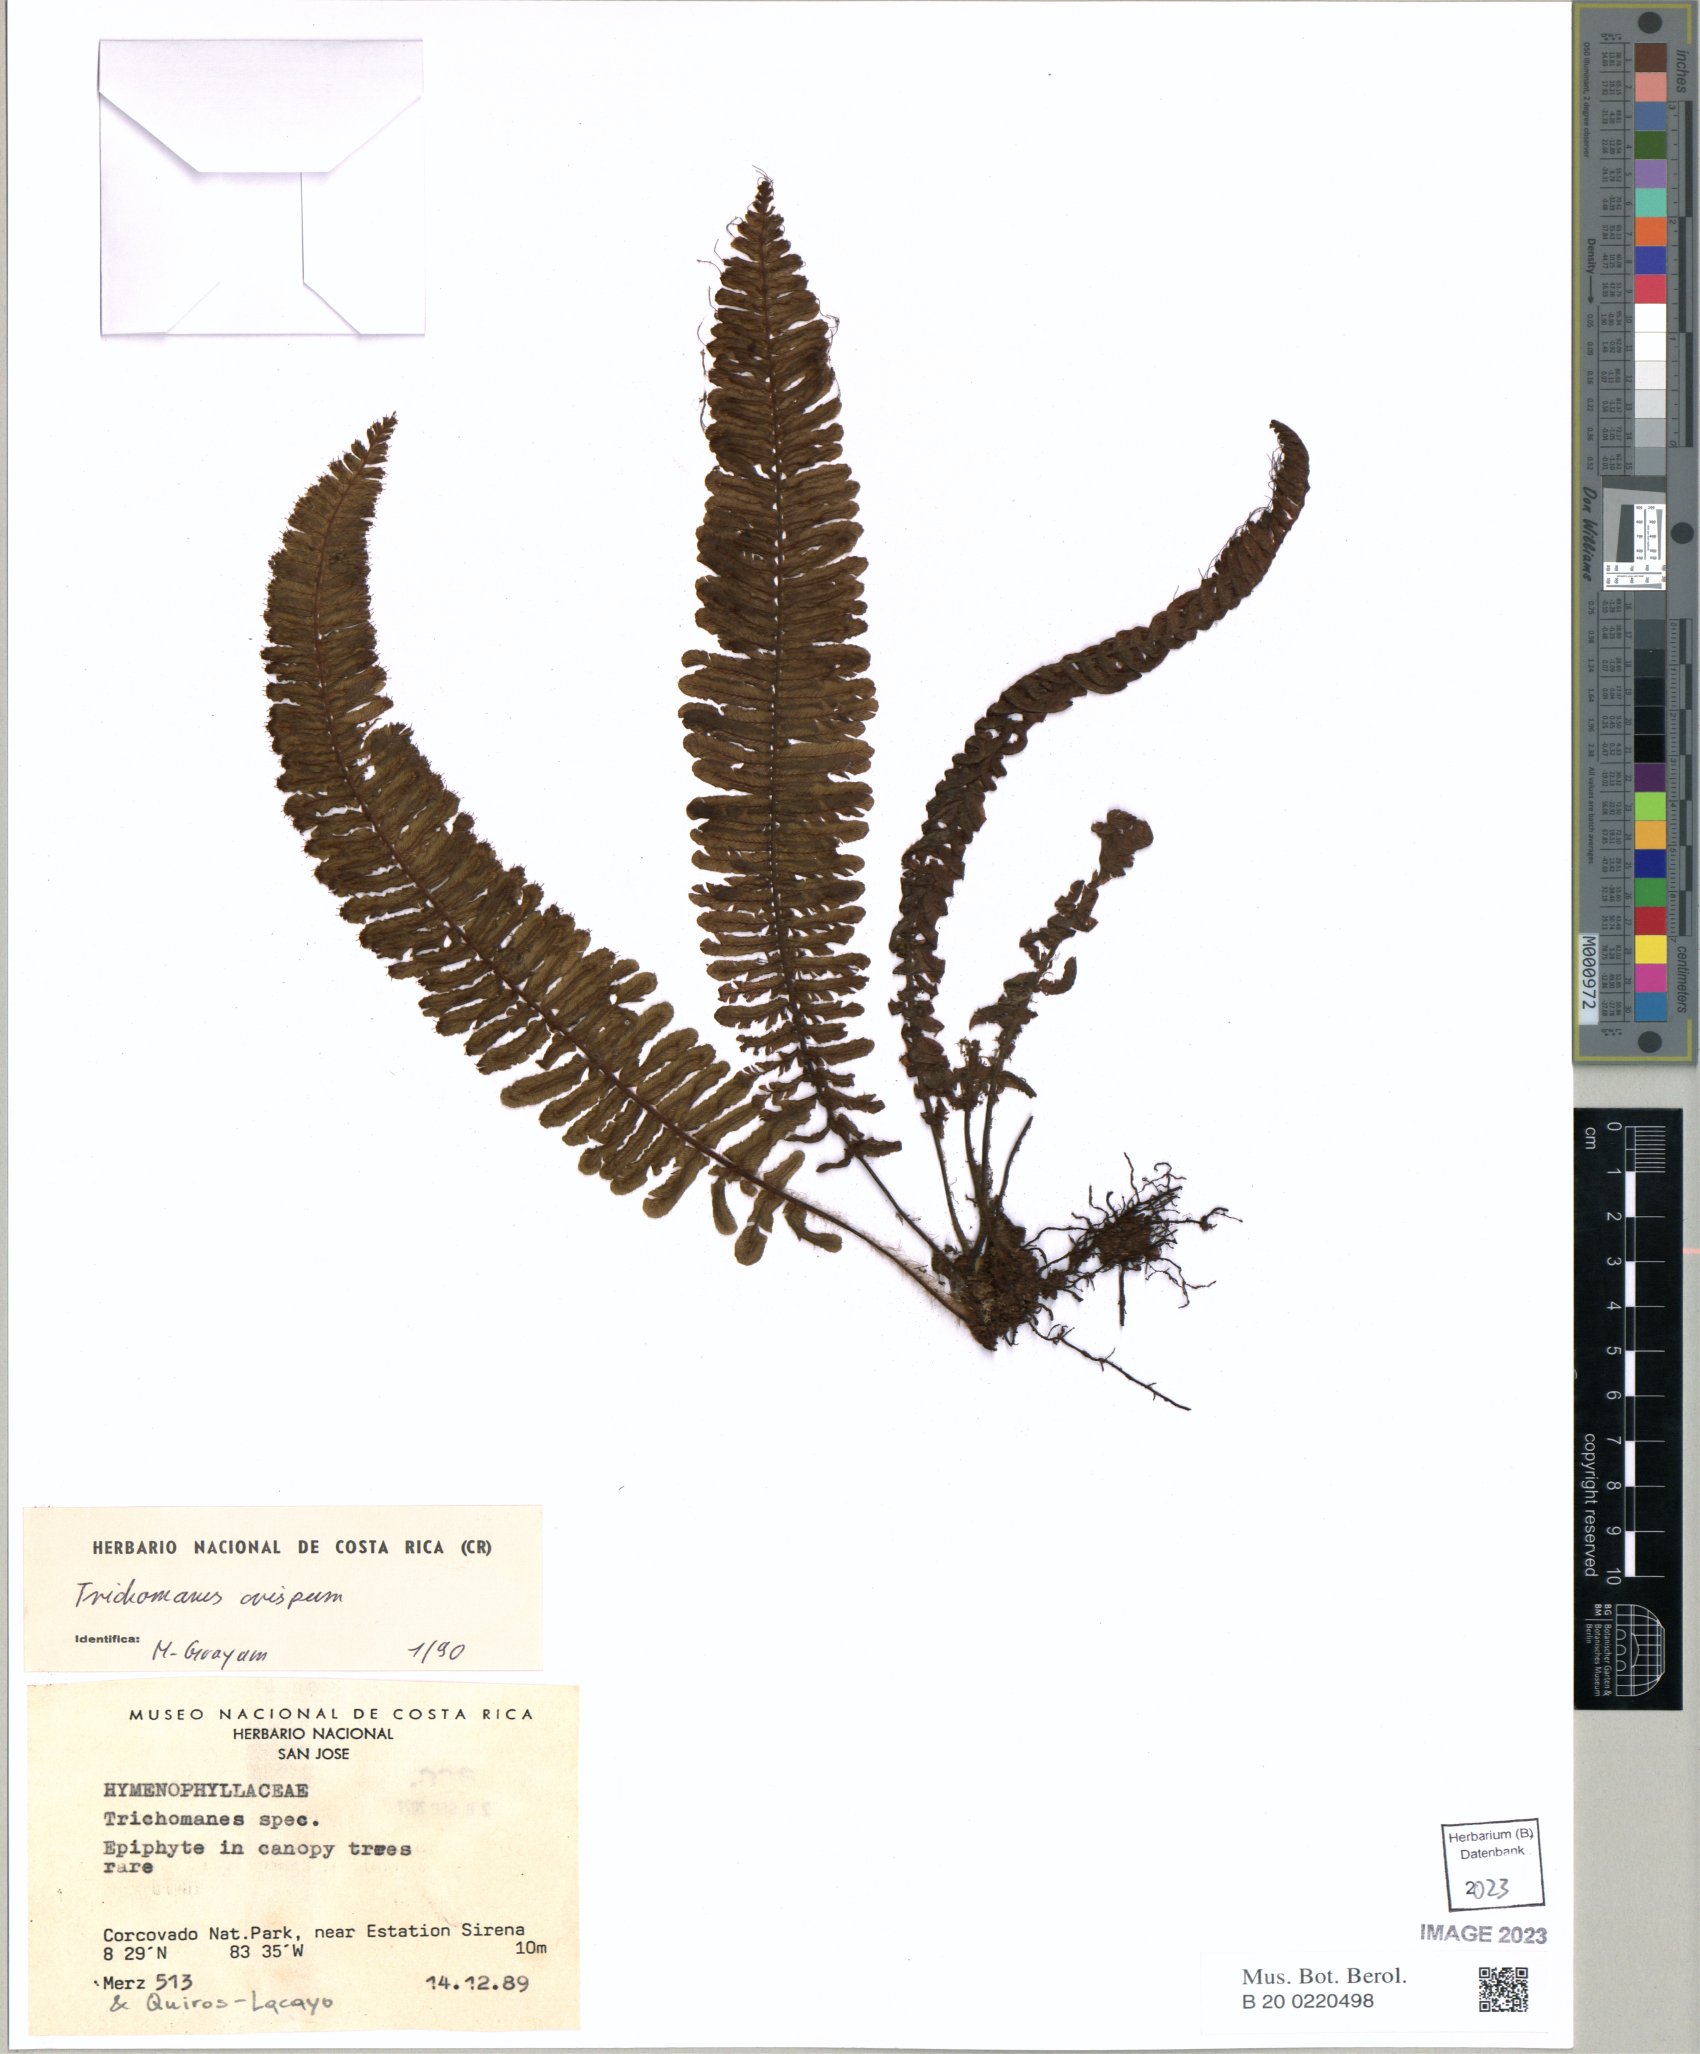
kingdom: Plantae
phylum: Tracheophyta
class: Polypodiopsida
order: Hymenophyllales
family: Hymenophyllaceae
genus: Trichomanes
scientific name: Trichomanes crispum
